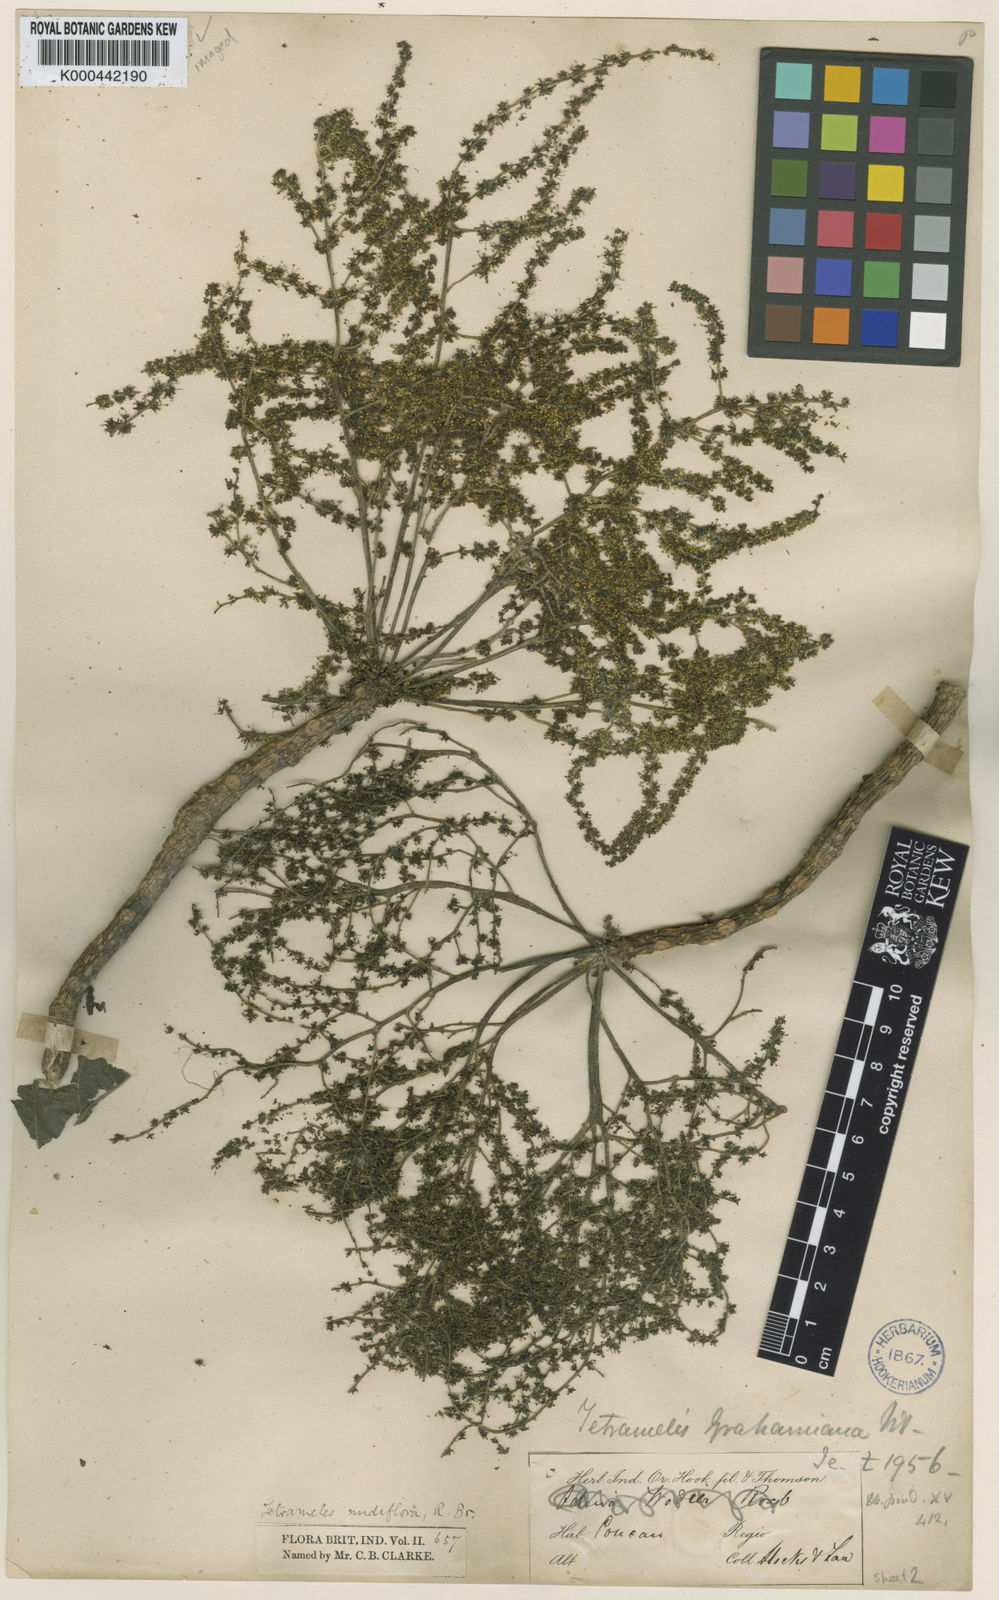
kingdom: Plantae
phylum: Tracheophyta
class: Magnoliopsida
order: Cucurbitales
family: Tetramelaceae
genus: Tetrameles
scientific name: Tetrameles nudiflora
